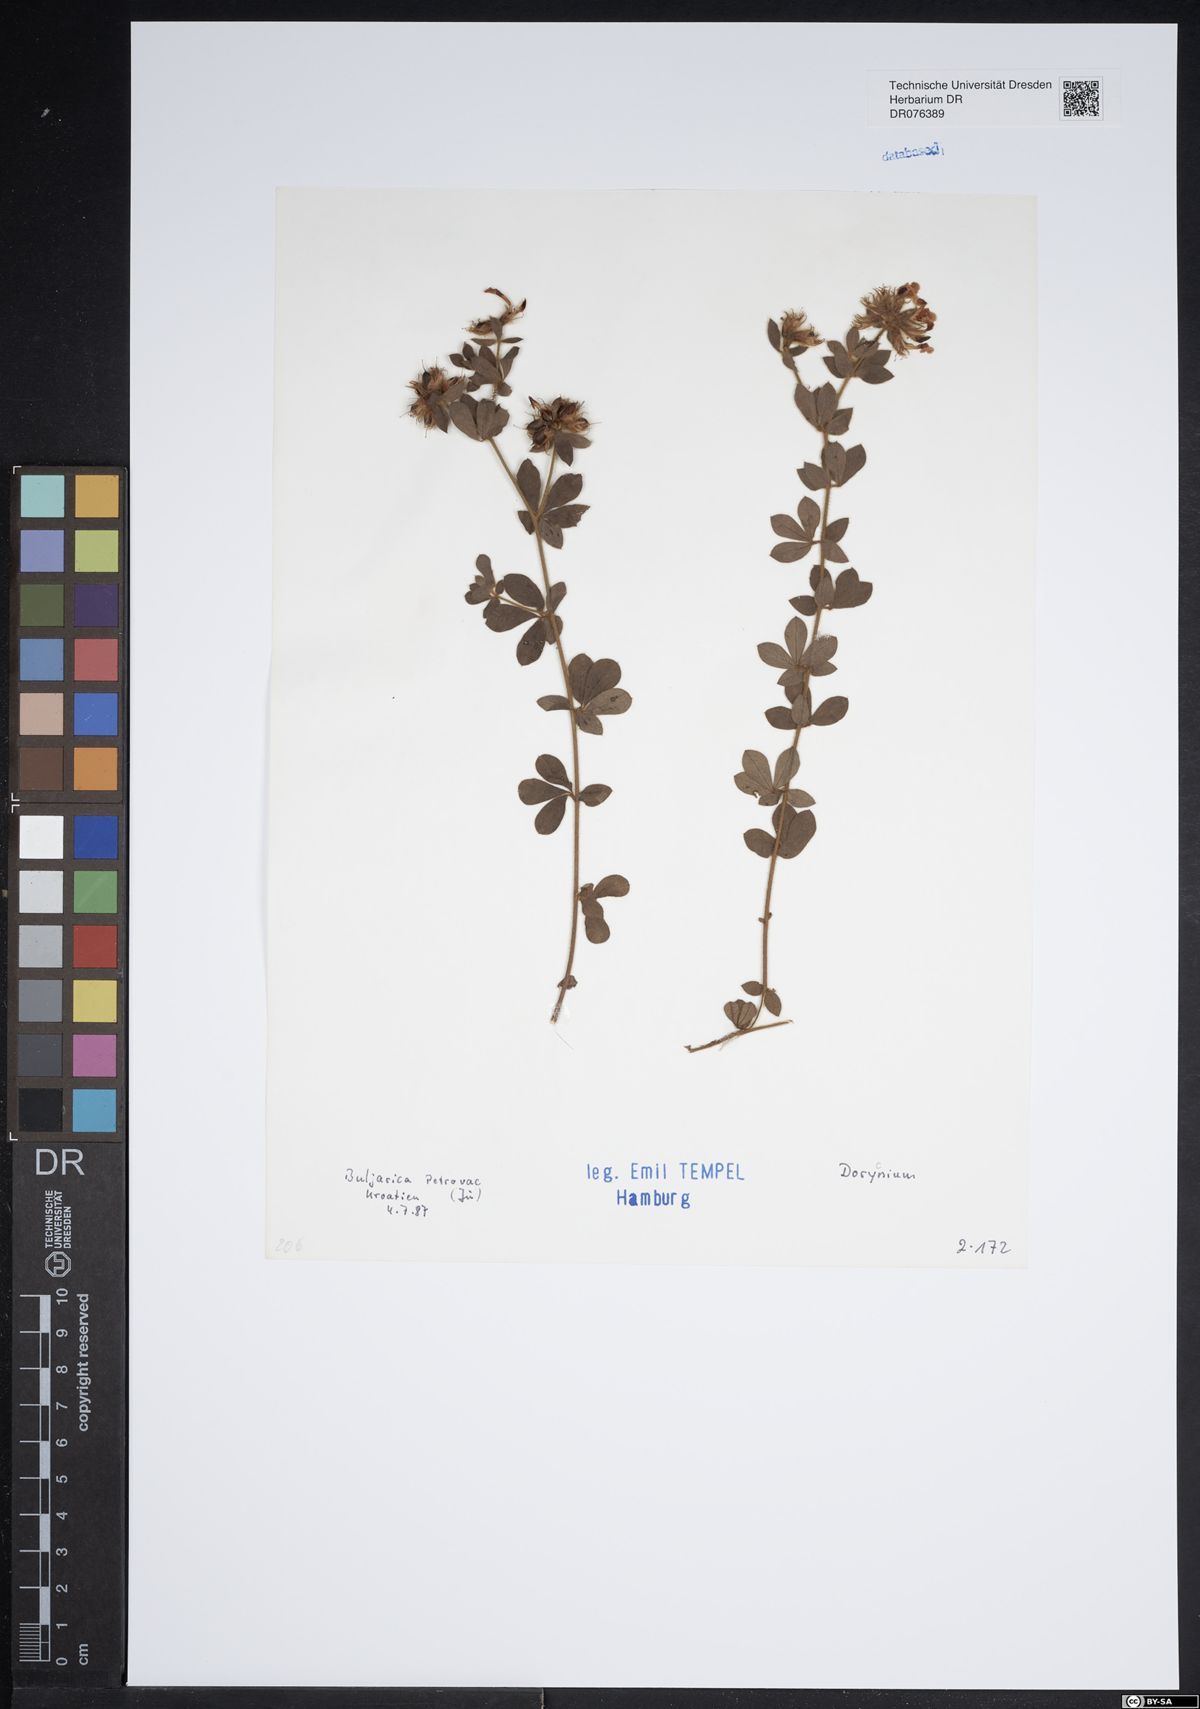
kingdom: Plantae
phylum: Tracheophyta
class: Magnoliopsida
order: Fabales
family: Fabaceae
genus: Lotus
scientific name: Lotus
